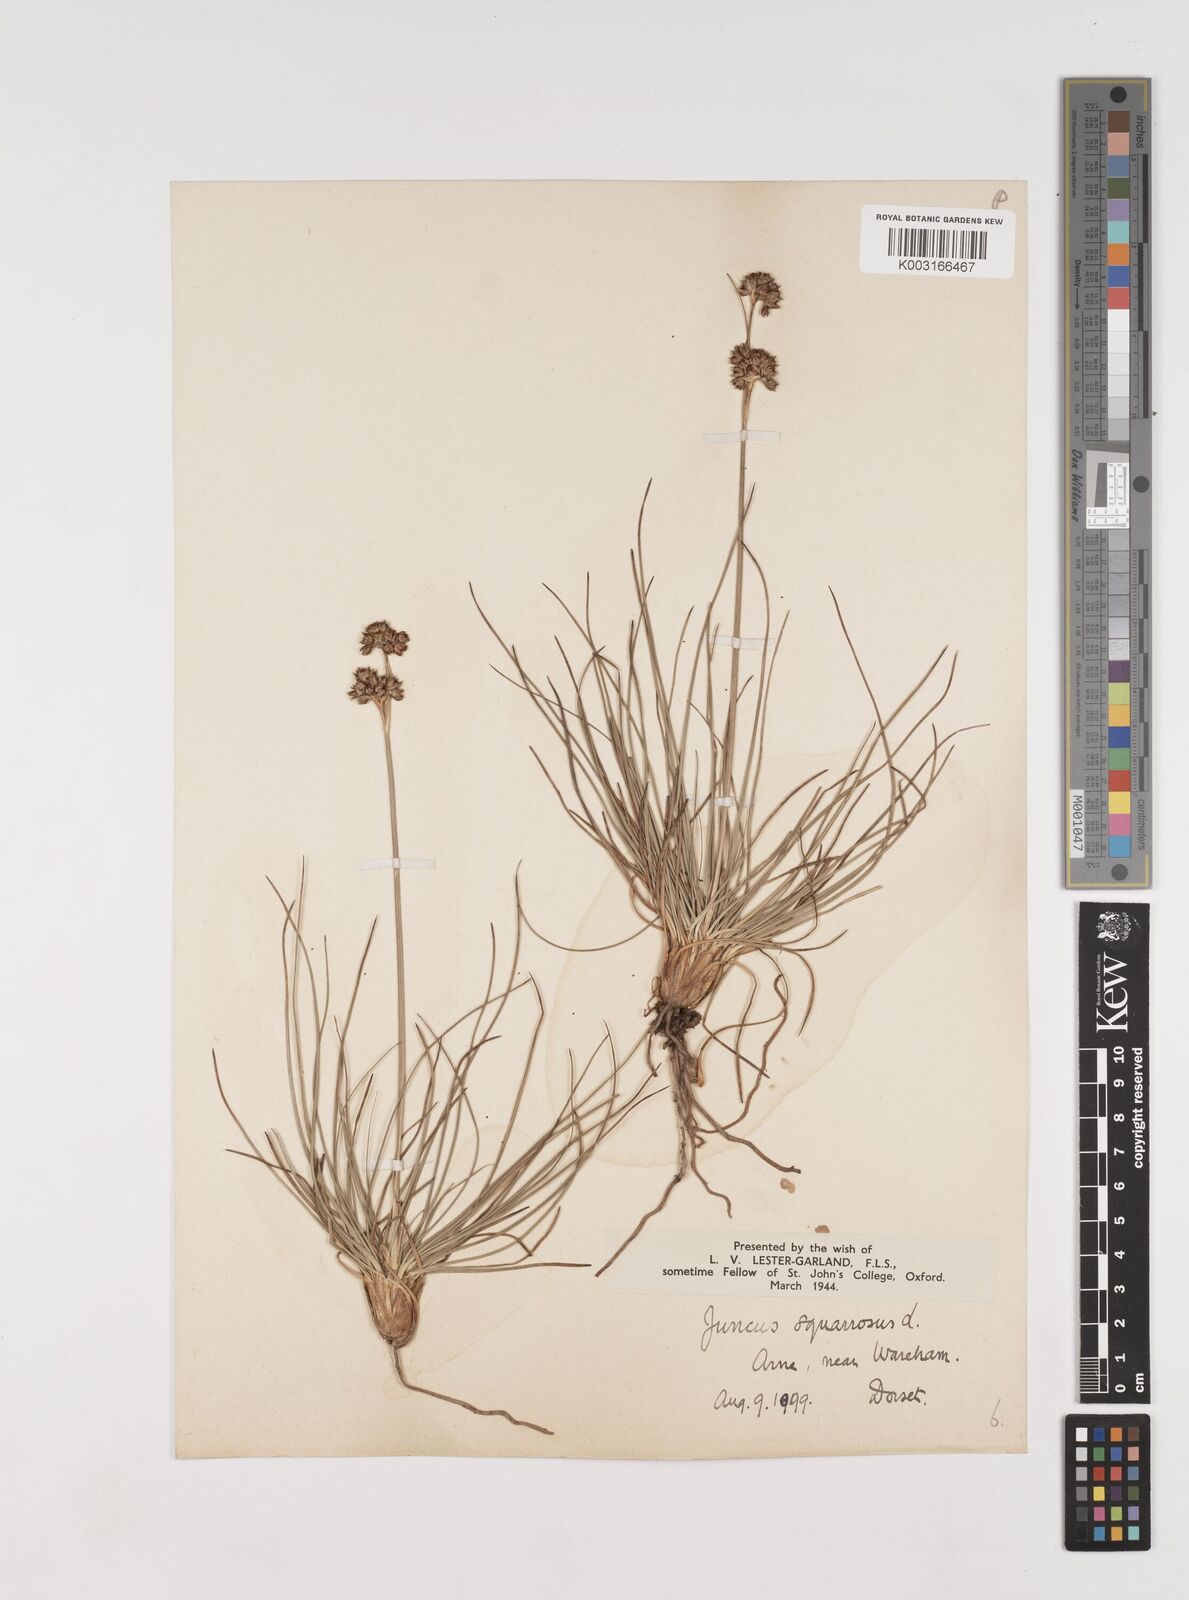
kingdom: Plantae
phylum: Tracheophyta
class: Liliopsida
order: Poales
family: Juncaceae
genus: Juncus
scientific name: Juncus squarrosus
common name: Heath rush
